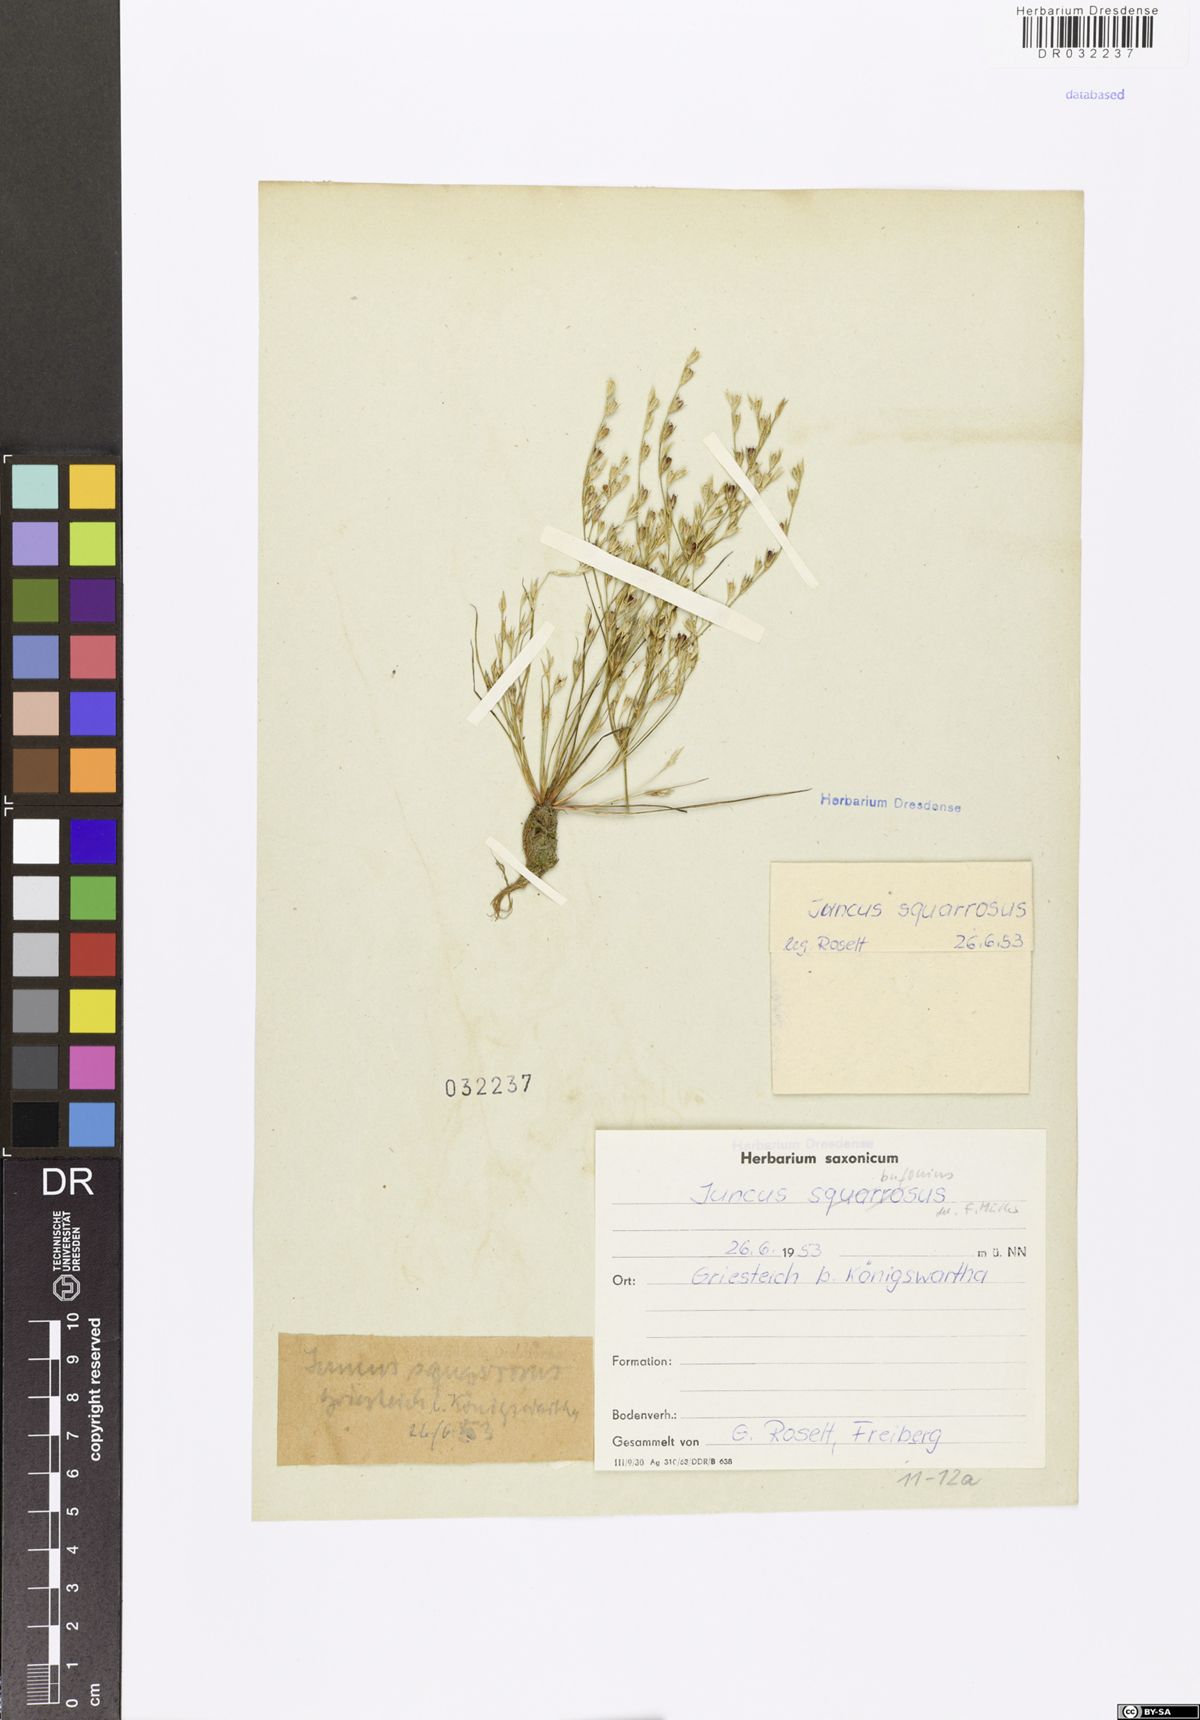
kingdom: Plantae
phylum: Tracheophyta
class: Liliopsida
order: Poales
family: Juncaceae
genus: Juncus
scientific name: Juncus bufonius
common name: Toad rush
